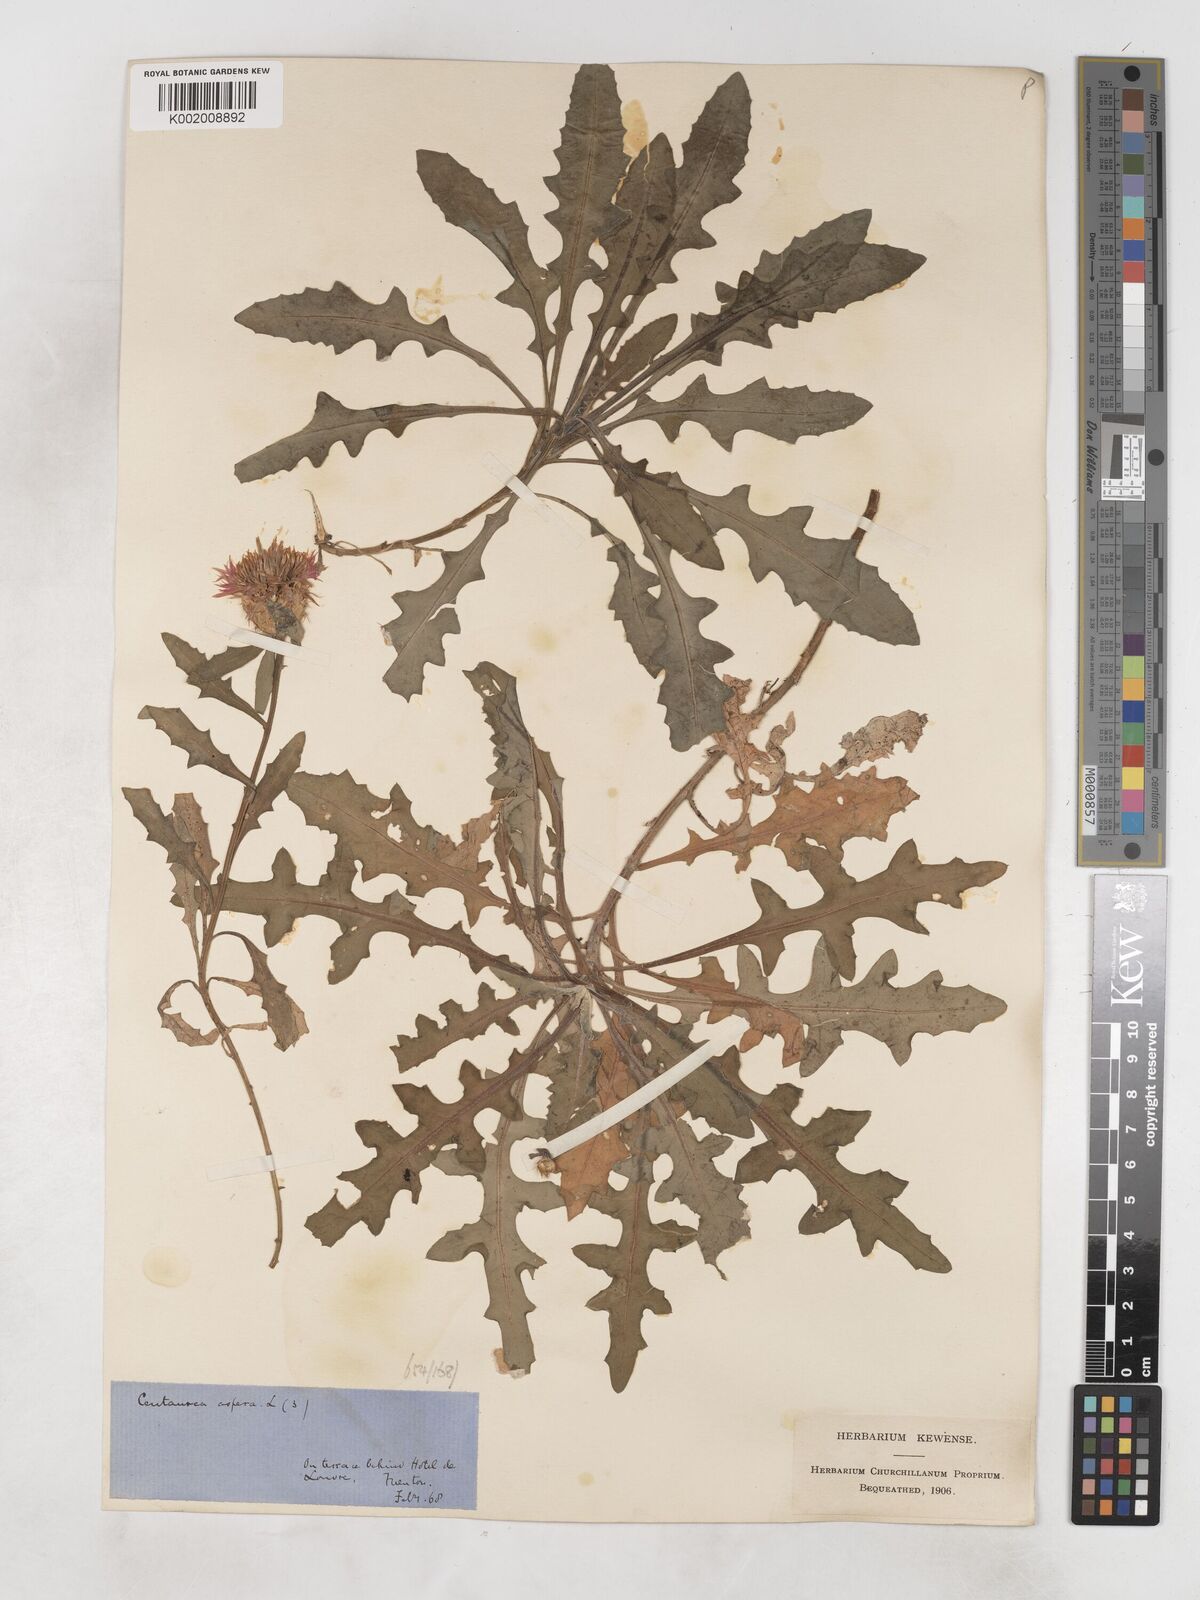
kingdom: Plantae
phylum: Tracheophyta
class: Magnoliopsida
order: Asterales
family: Asteraceae
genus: Centaurea
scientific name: Centaurea aspera
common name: Rough star-thistle
